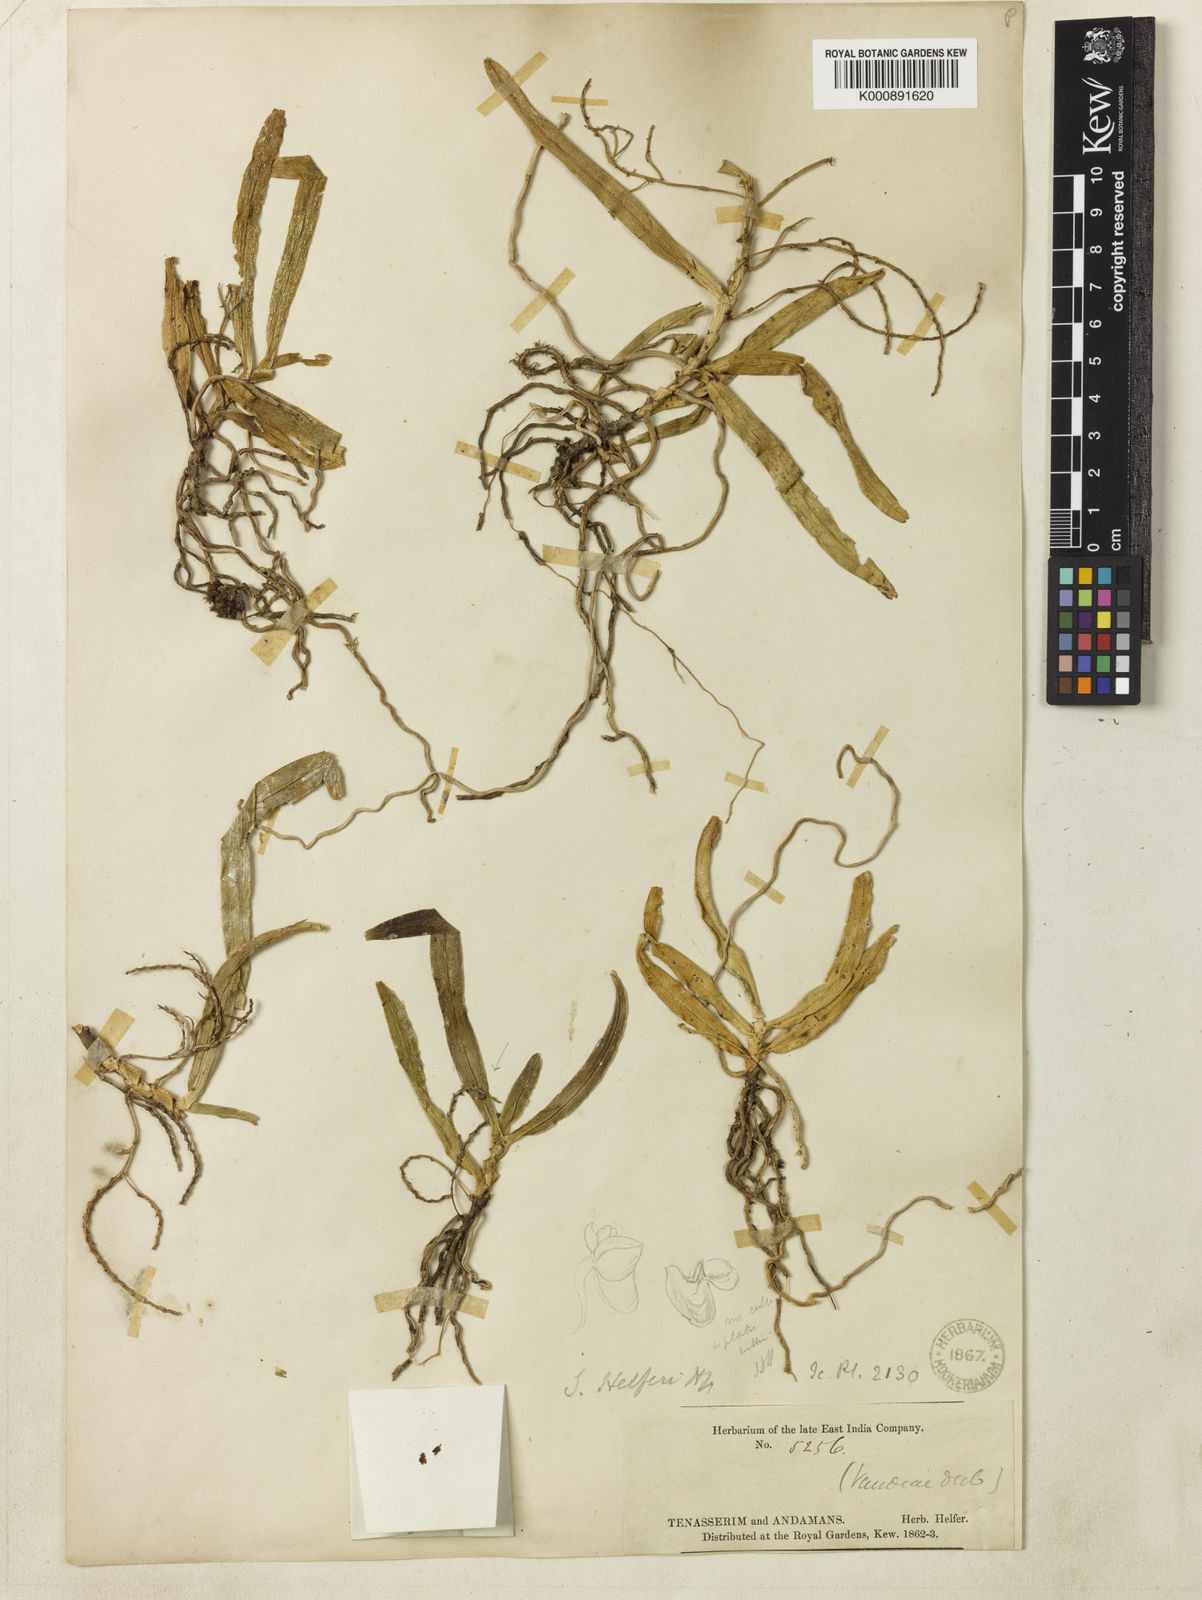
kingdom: Plantae
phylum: Tracheophyta
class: Liliopsida
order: Asparagales
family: Orchidaceae
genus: Smitinandia
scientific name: Smitinandia helferi
